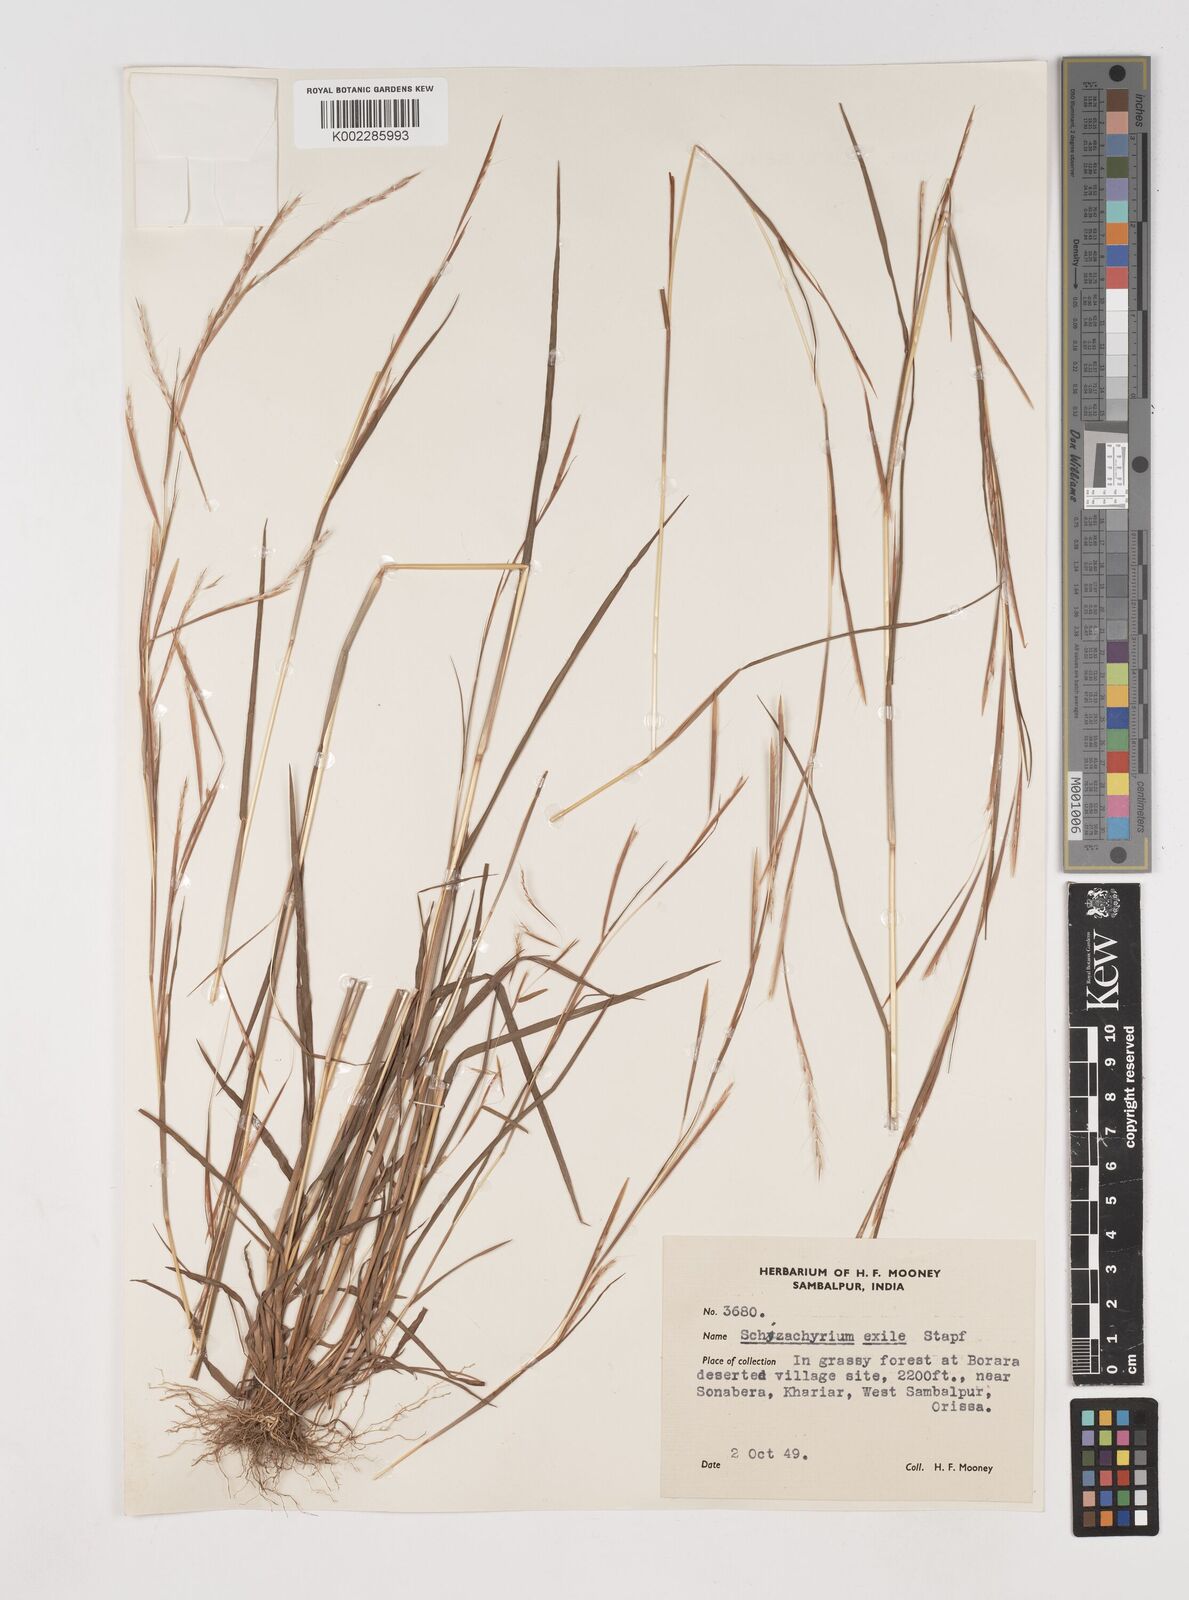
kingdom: Plantae
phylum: Tracheophyta
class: Liliopsida
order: Poales
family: Poaceae
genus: Schizachyrium
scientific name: Schizachyrium exile
